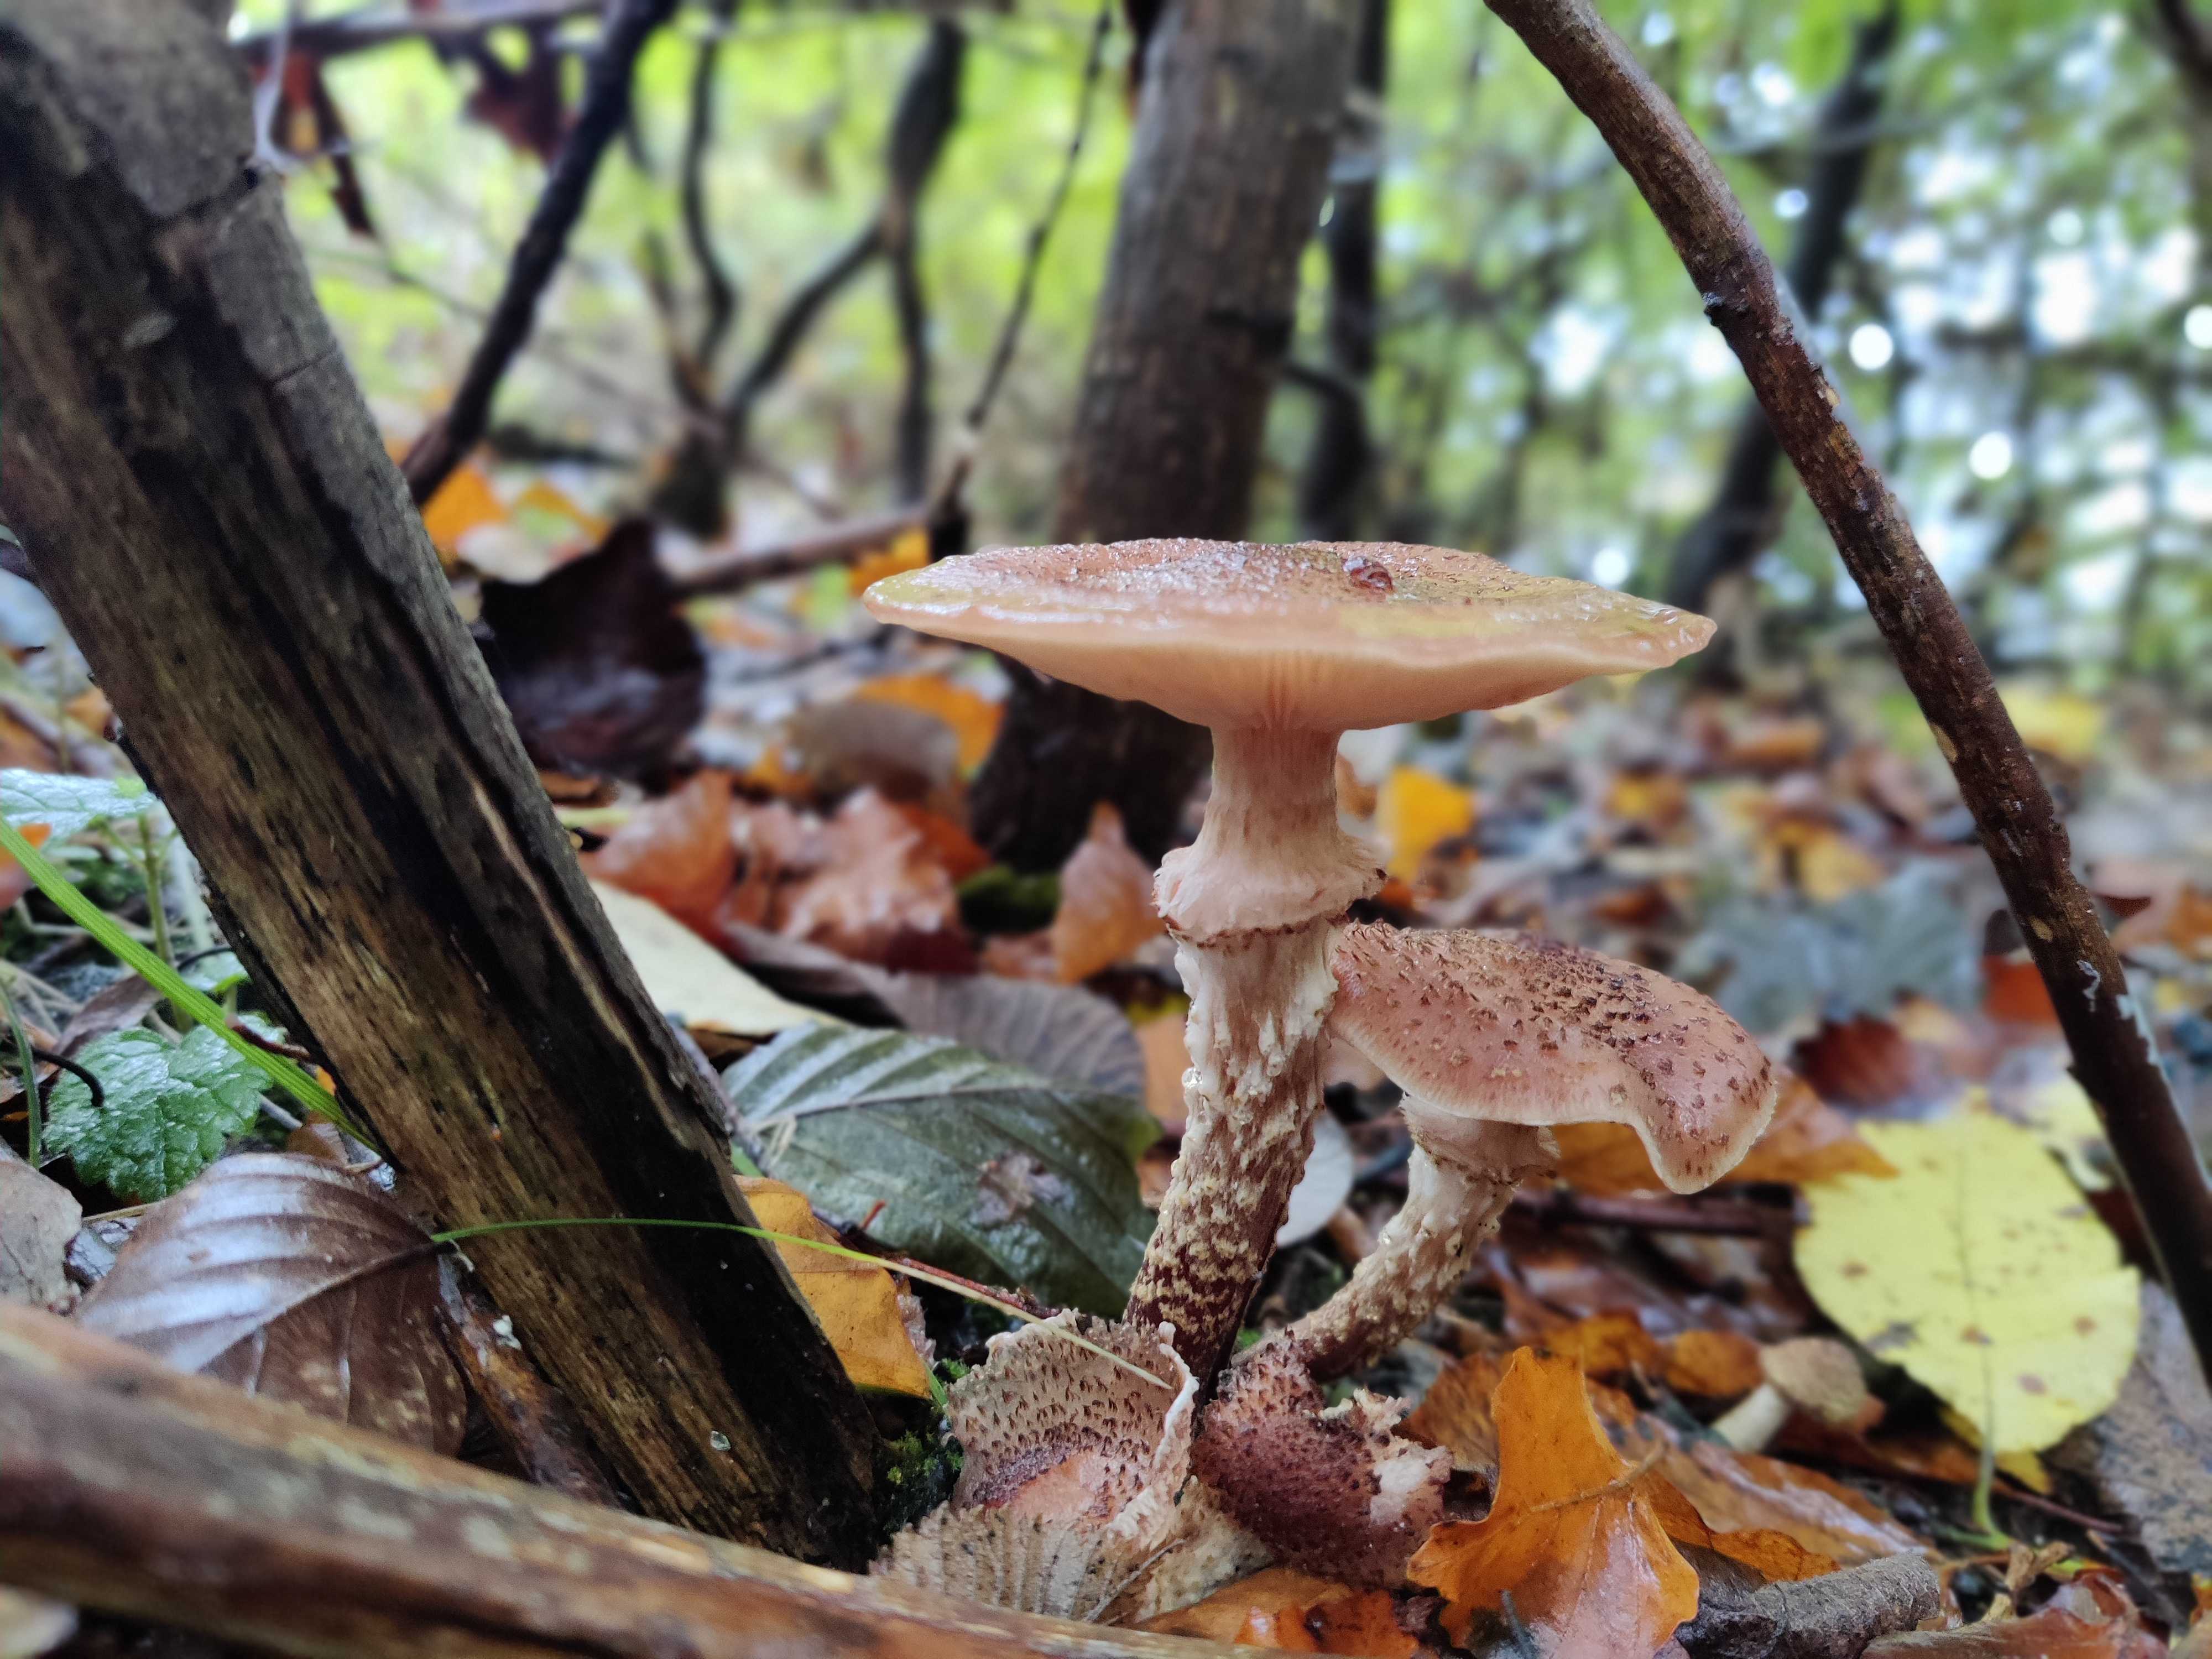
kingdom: Fungi
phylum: Basidiomycota
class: Agaricomycetes
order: Agaricales
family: Physalacriaceae
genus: Armillaria
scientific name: Armillaria ostoyae
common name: mørk honningsvamp
